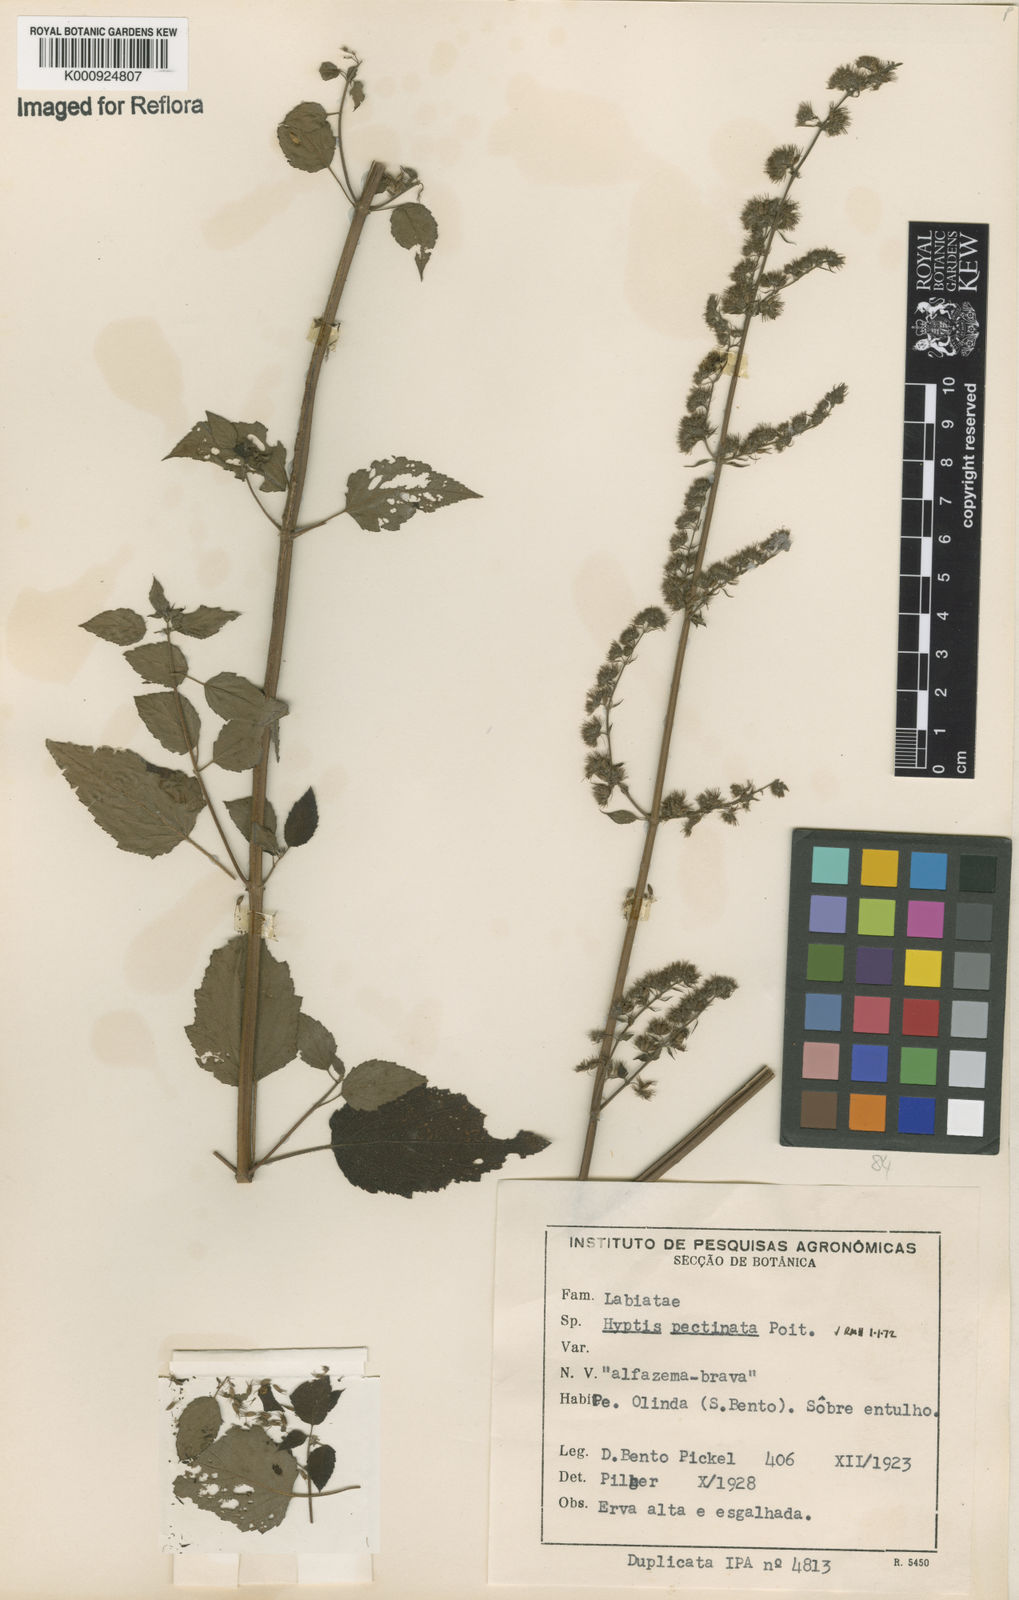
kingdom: Plantae
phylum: Tracheophyta
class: Magnoliopsida
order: Lamiales
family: Lamiaceae
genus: Mesosphaerum
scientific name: Mesosphaerum pectinatum
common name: Comb hyptis
